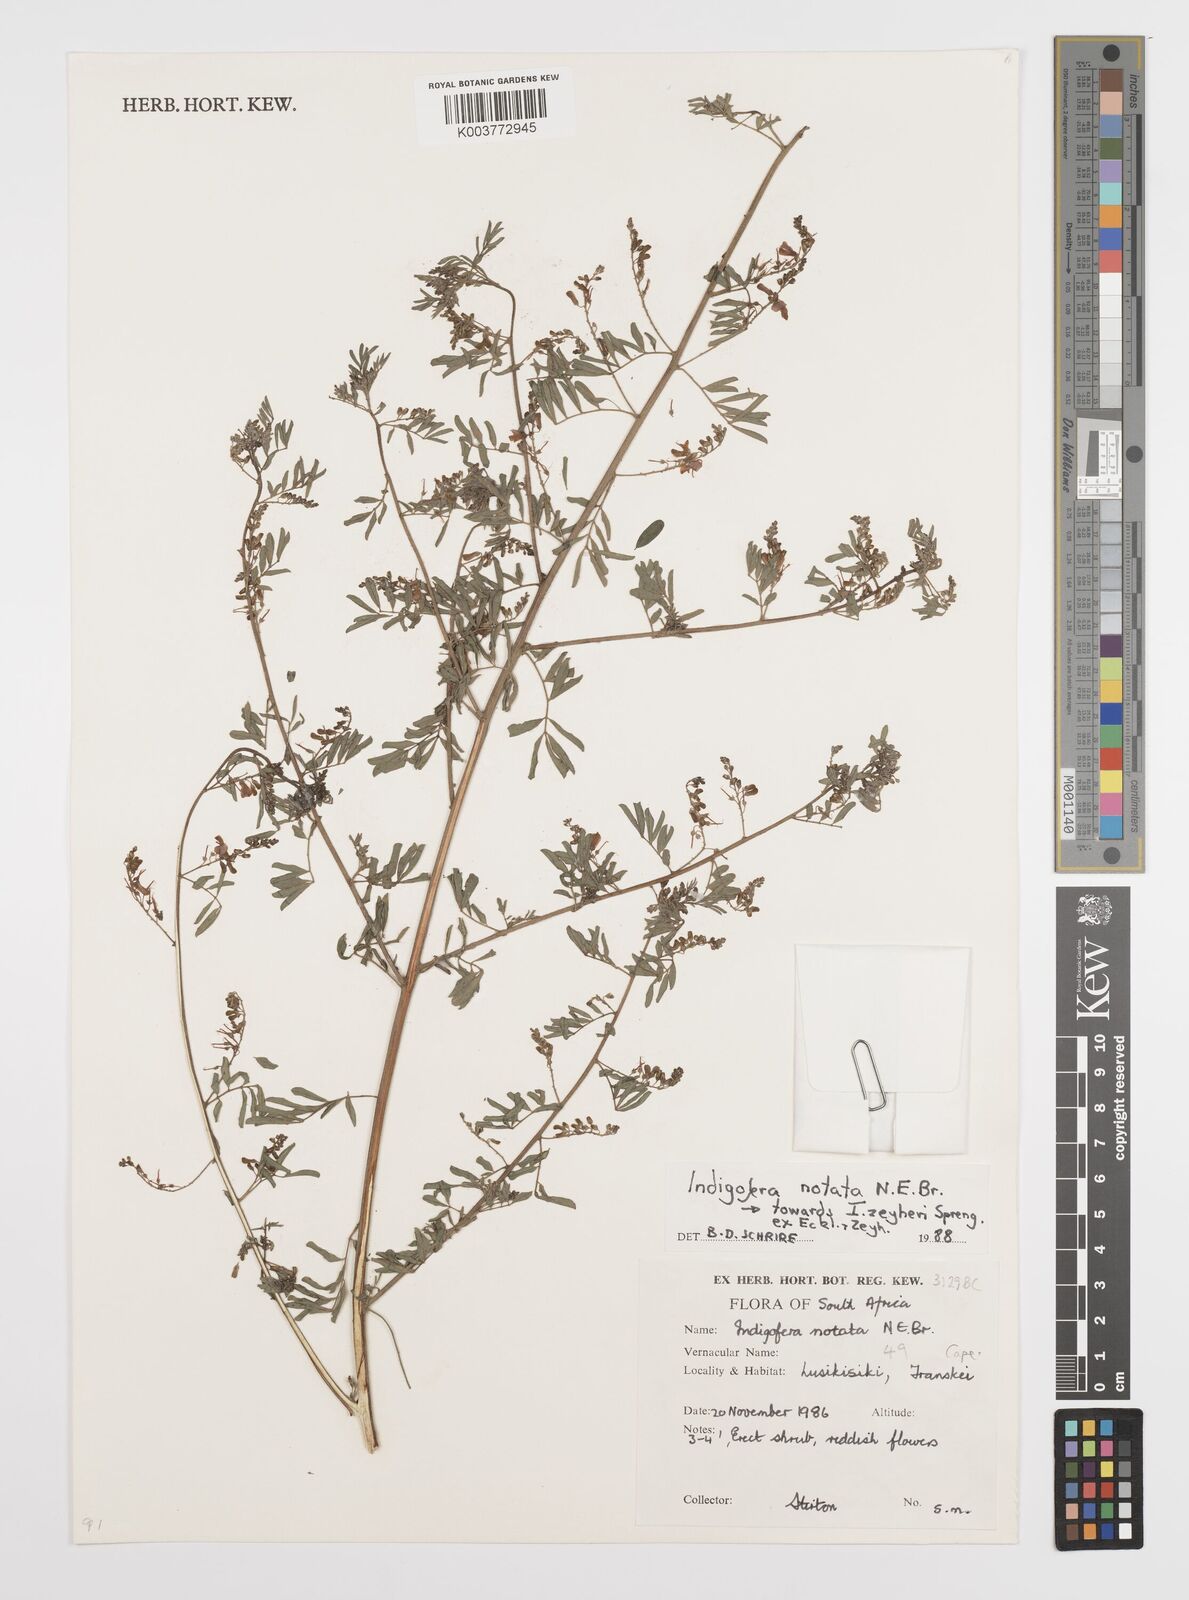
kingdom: Plantae
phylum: Tracheophyta
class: Magnoliopsida
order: Fabales
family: Fabaceae
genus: Indigofera
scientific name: Indigofera
